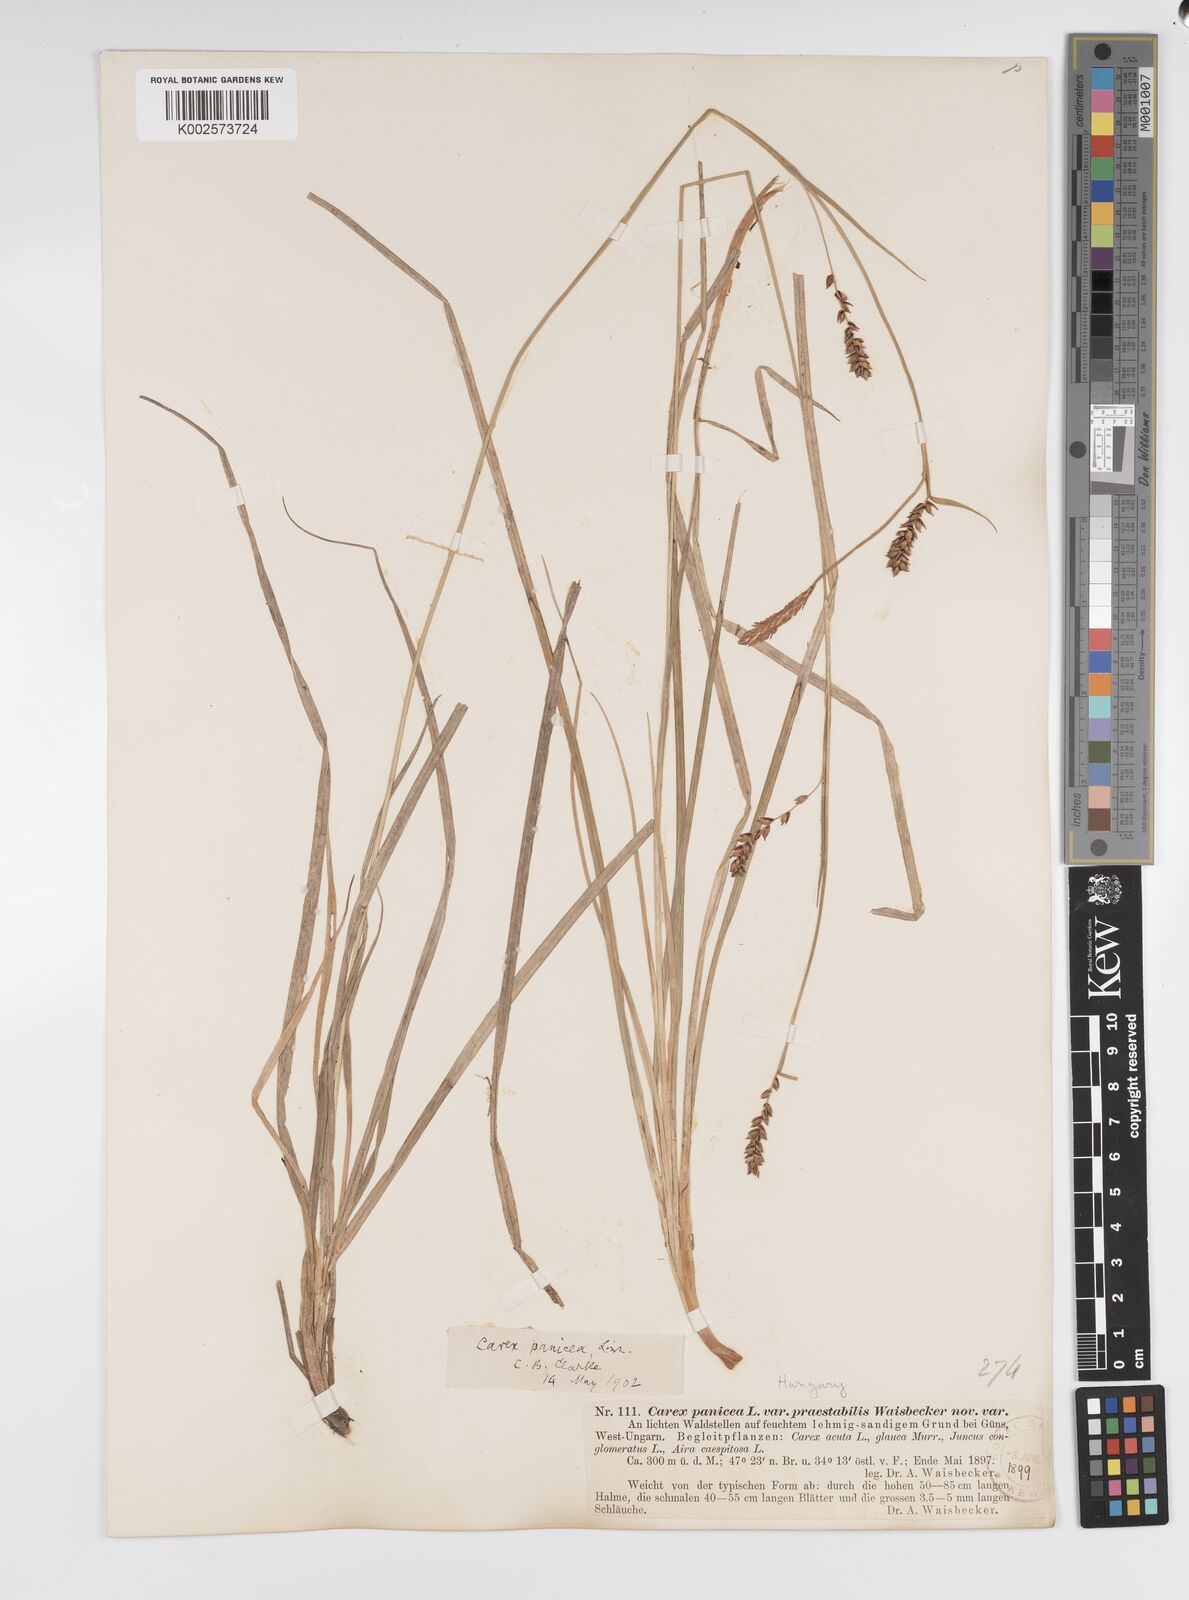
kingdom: Plantae
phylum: Tracheophyta
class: Liliopsida
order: Poales
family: Cyperaceae
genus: Carex
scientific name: Carex panicea
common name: Carnation sedge
